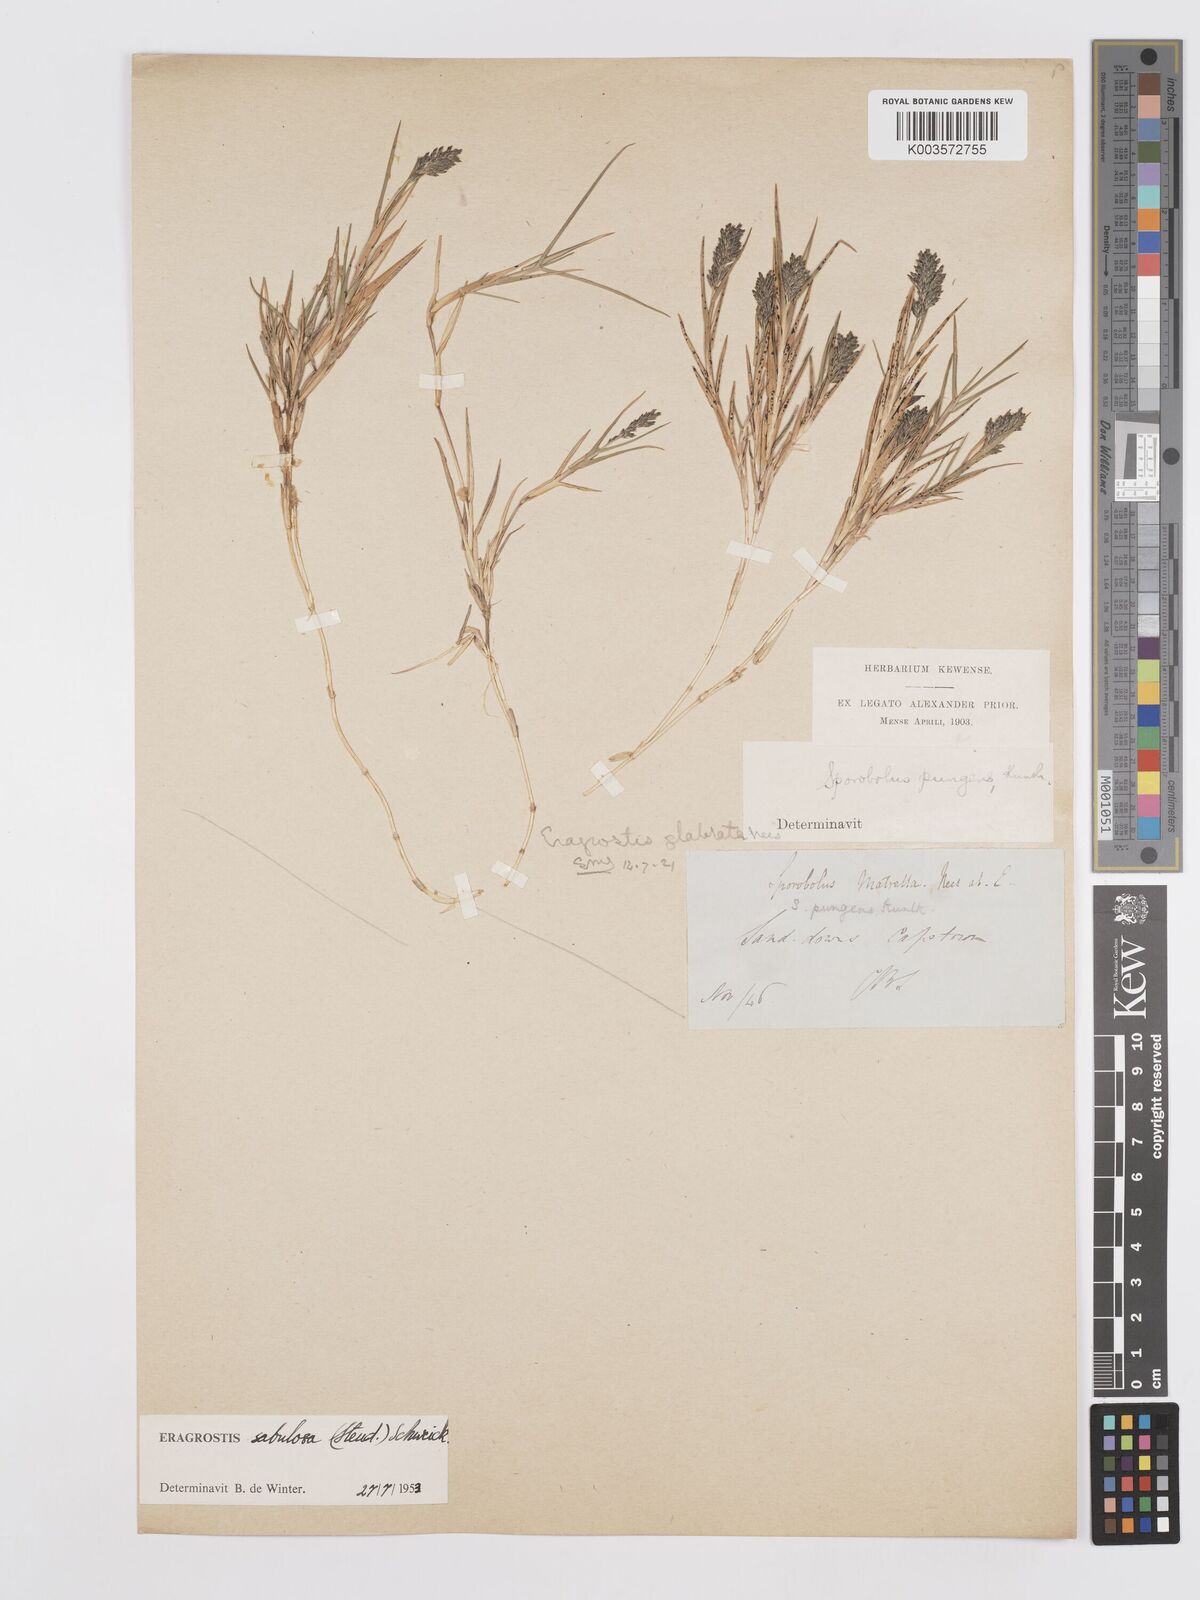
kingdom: Plantae
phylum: Tracheophyta
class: Liliopsida
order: Poales
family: Poaceae
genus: Eragrostis
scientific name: Eragrostis sabulosa
